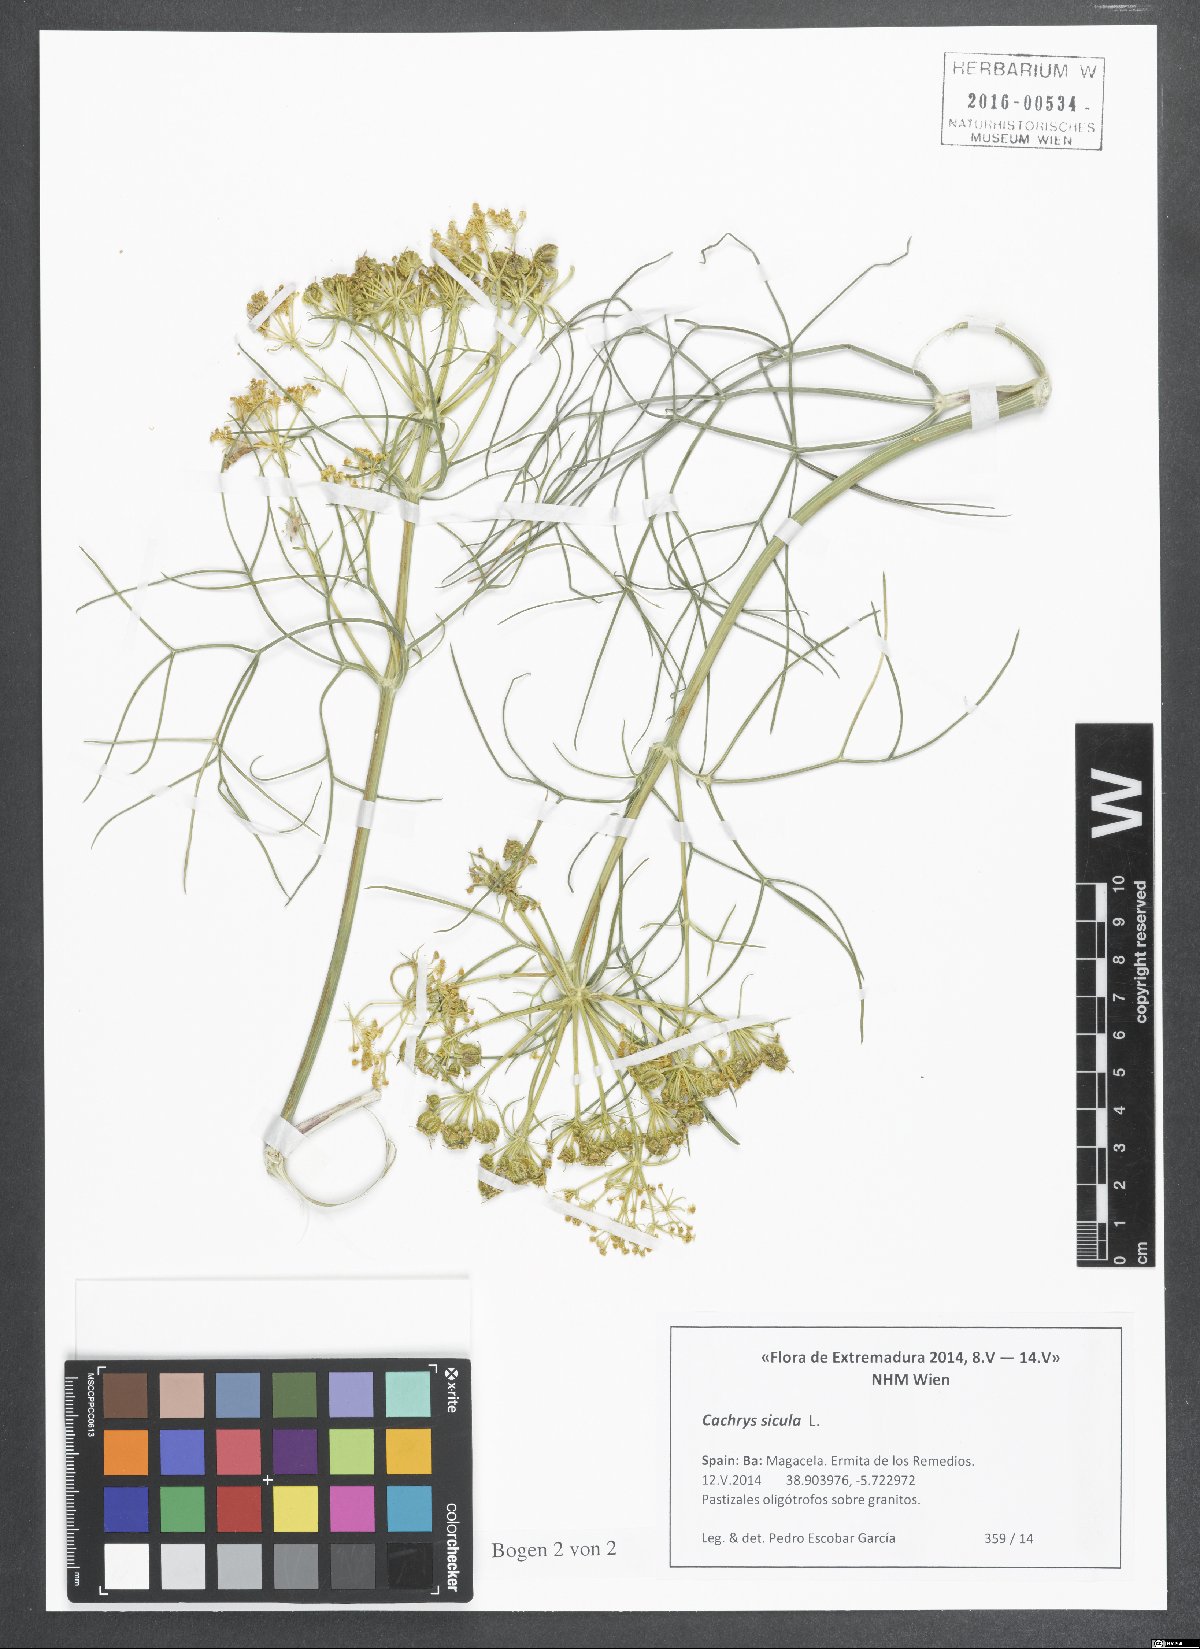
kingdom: Plantae
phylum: Tracheophyta
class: Magnoliopsida
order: Apiales
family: Apiaceae
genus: Cachrys
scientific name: Cachrys sicula
